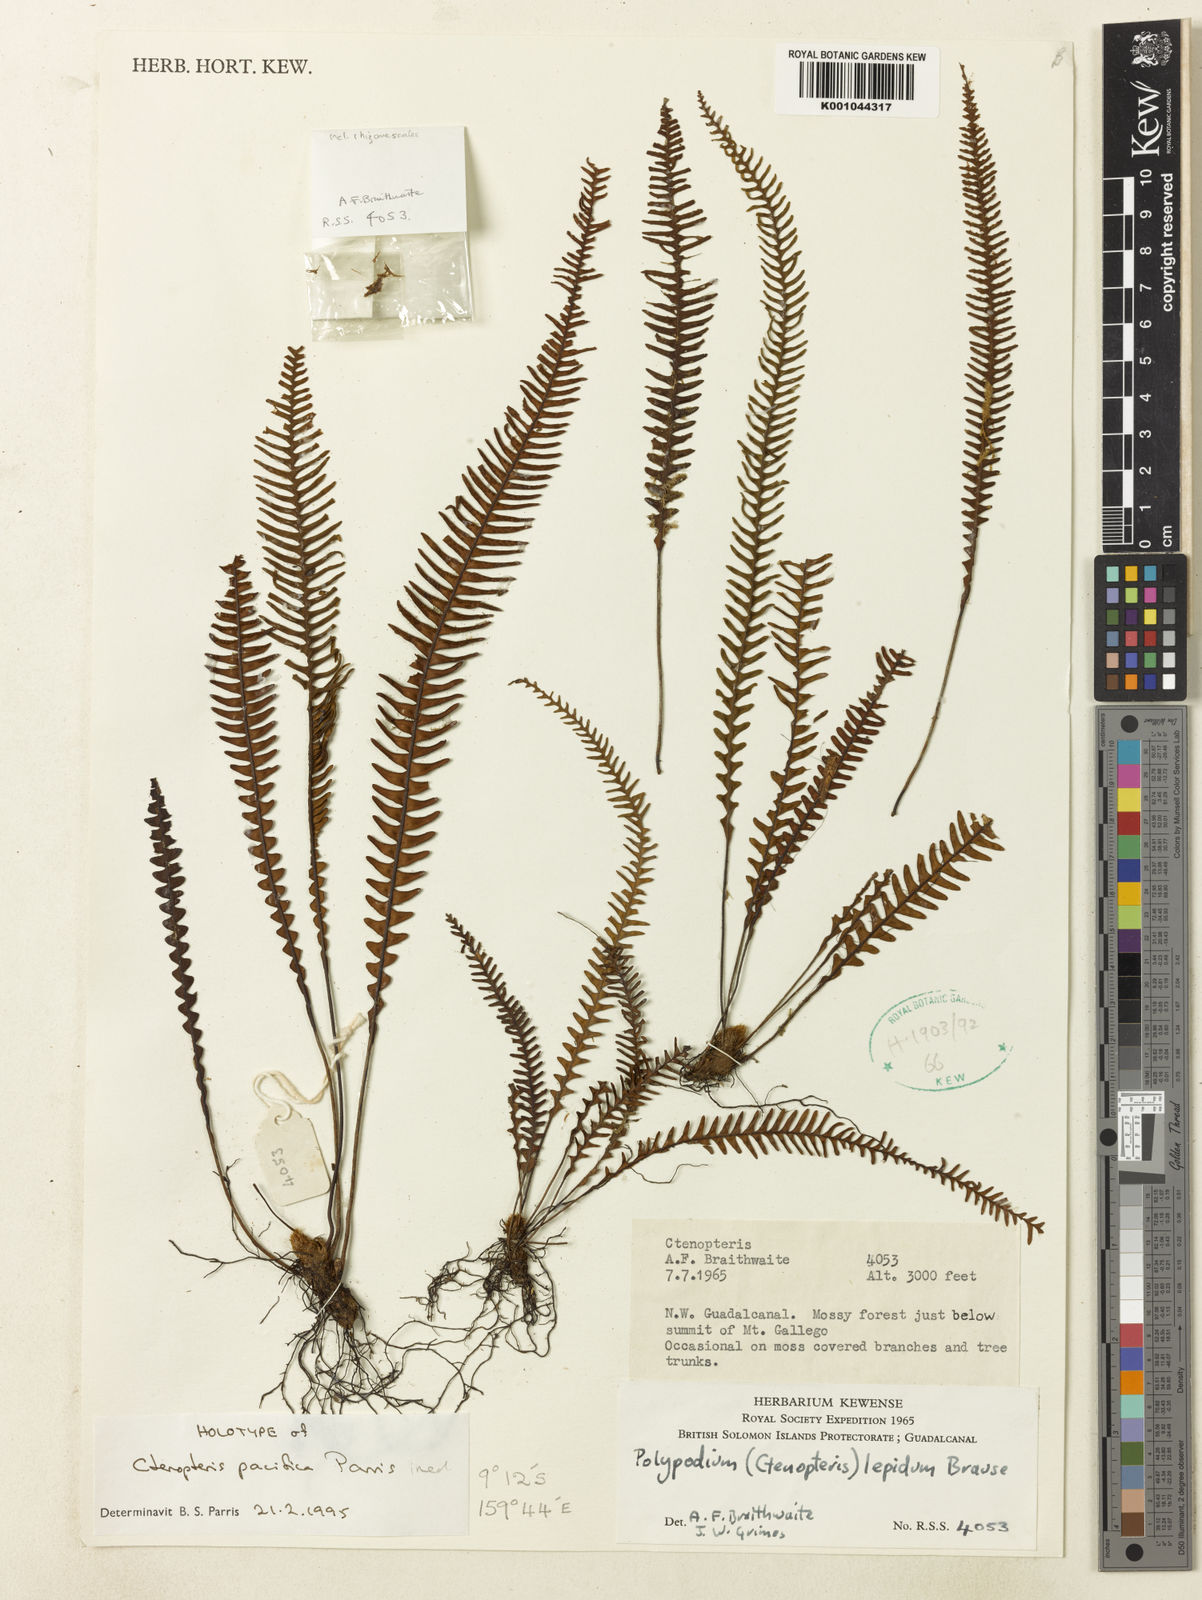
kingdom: Plantae
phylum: Tracheophyta
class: Polypodiopsida
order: Polypodiales
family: Polypodiaceae
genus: Grammitis
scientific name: Grammitis
